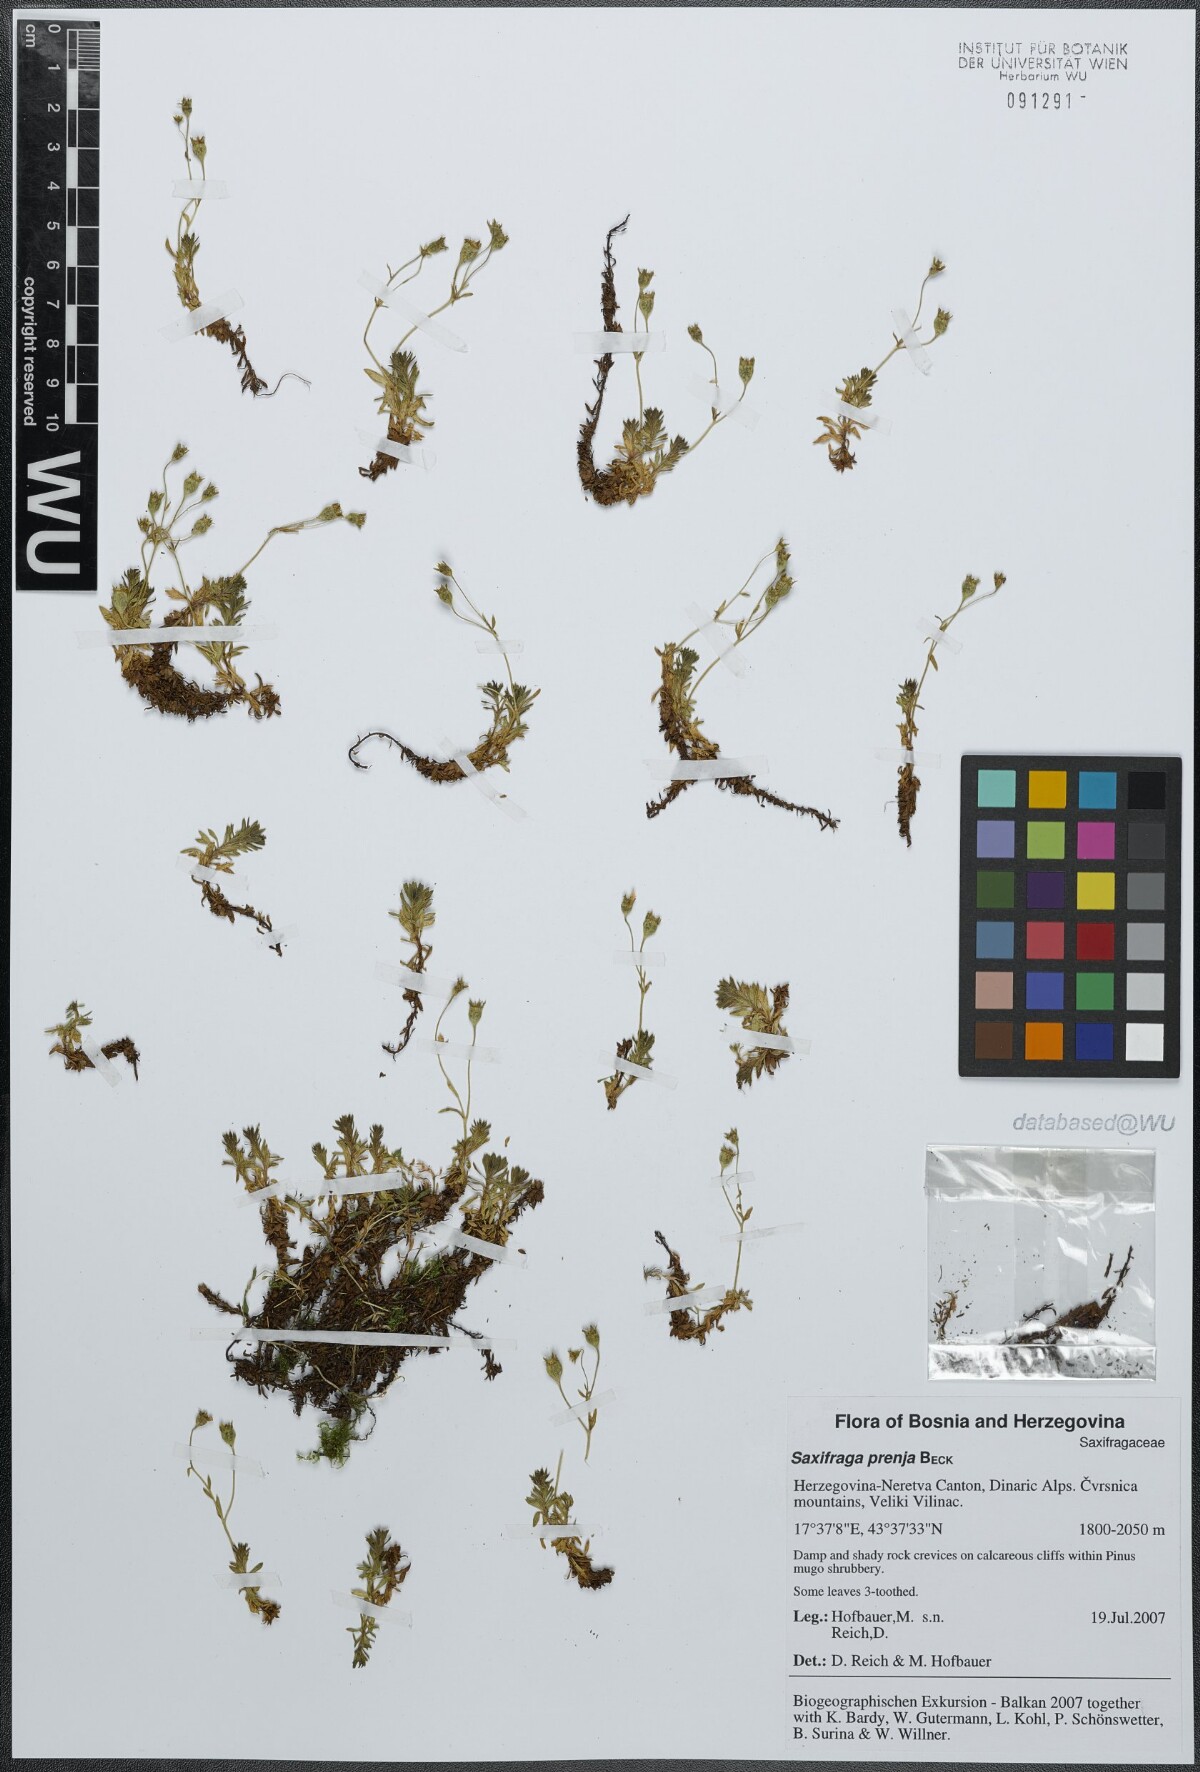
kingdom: Plantae
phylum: Tracheophyta
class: Magnoliopsida
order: Saxifragales
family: Saxifragaceae
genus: Saxifraga
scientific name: Saxifraga prenja
